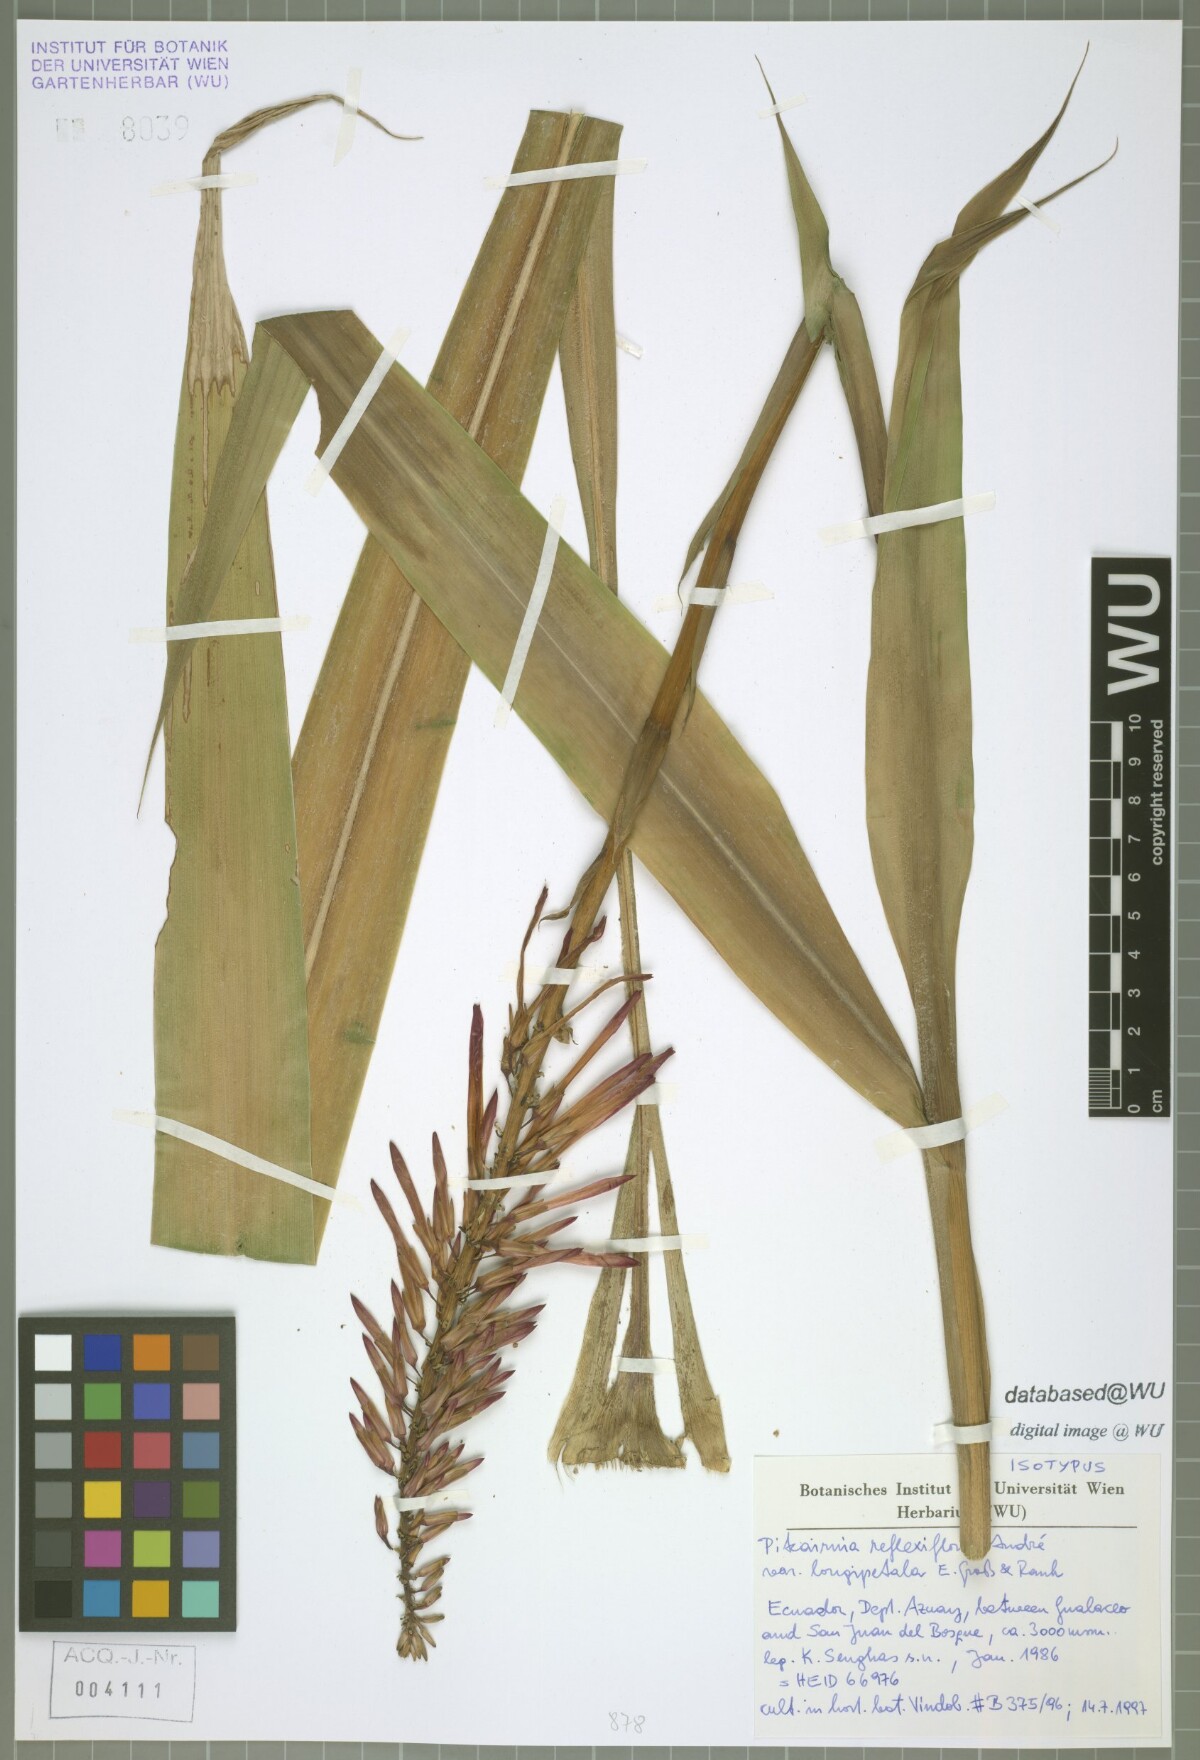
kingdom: Plantae
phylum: Tracheophyta
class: Liliopsida
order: Poales
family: Bromeliaceae
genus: Pitcairnia
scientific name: Pitcairnia reflexiflora
